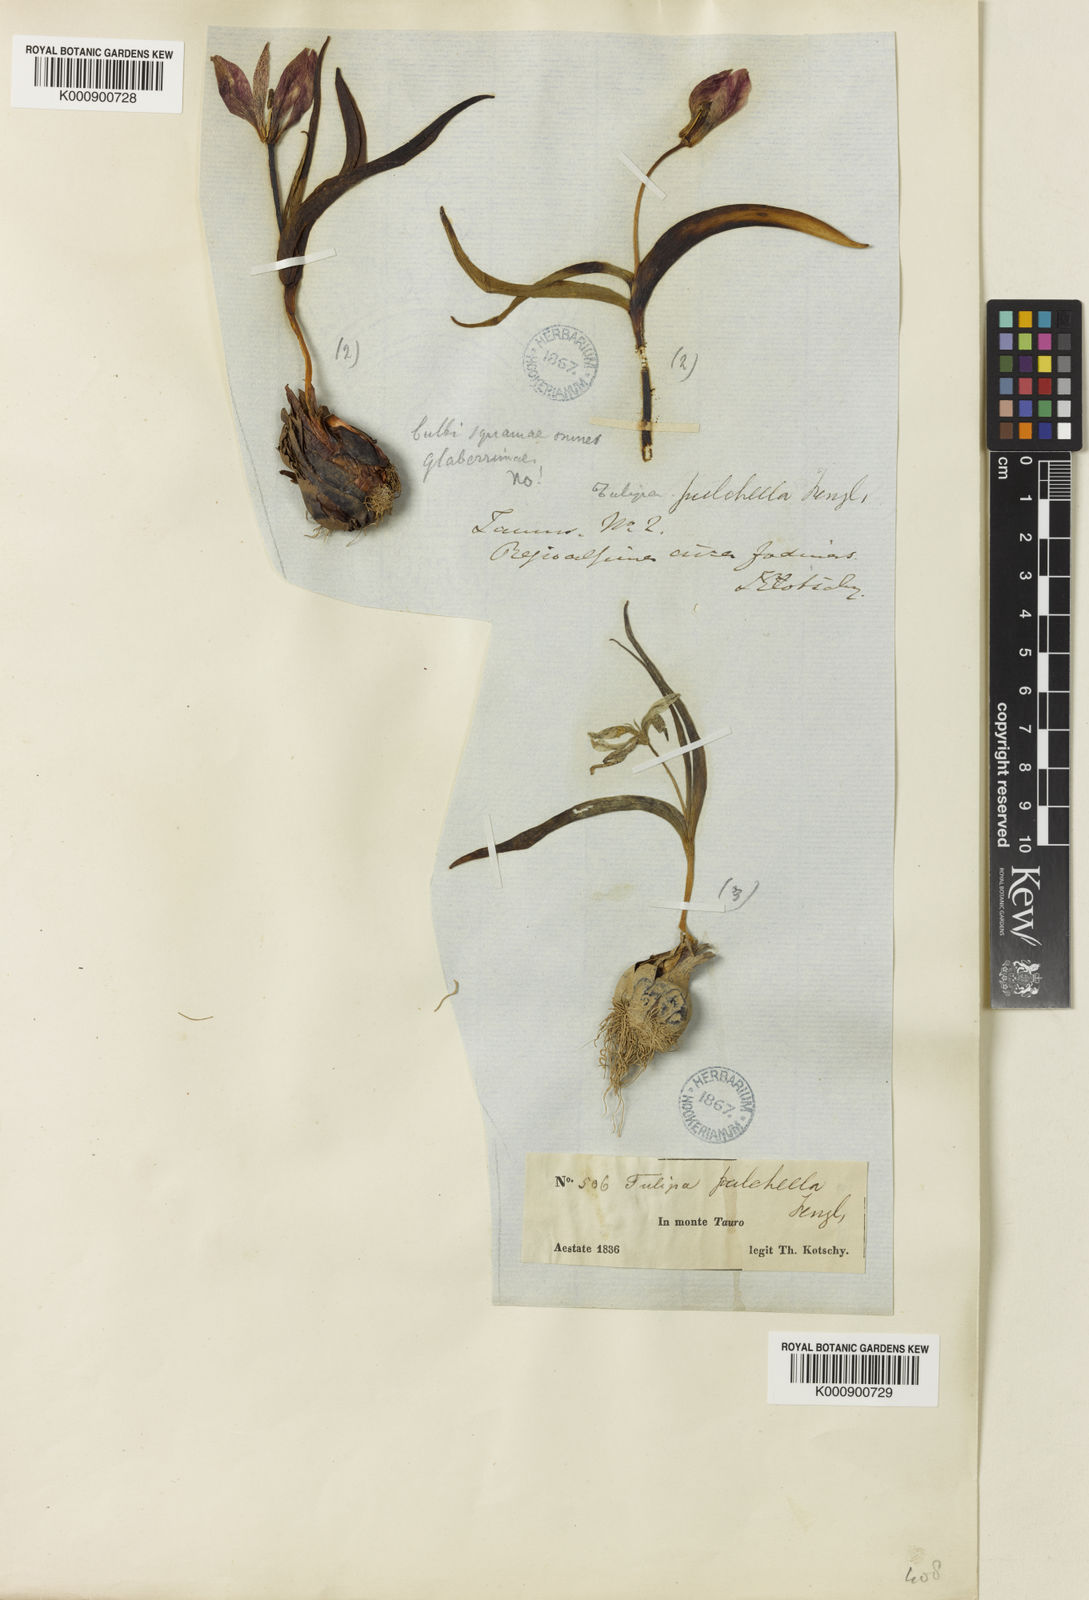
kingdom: Plantae
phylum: Tracheophyta
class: Liliopsida
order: Liliales
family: Liliaceae
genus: Tulipa
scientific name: Tulipa humilis
